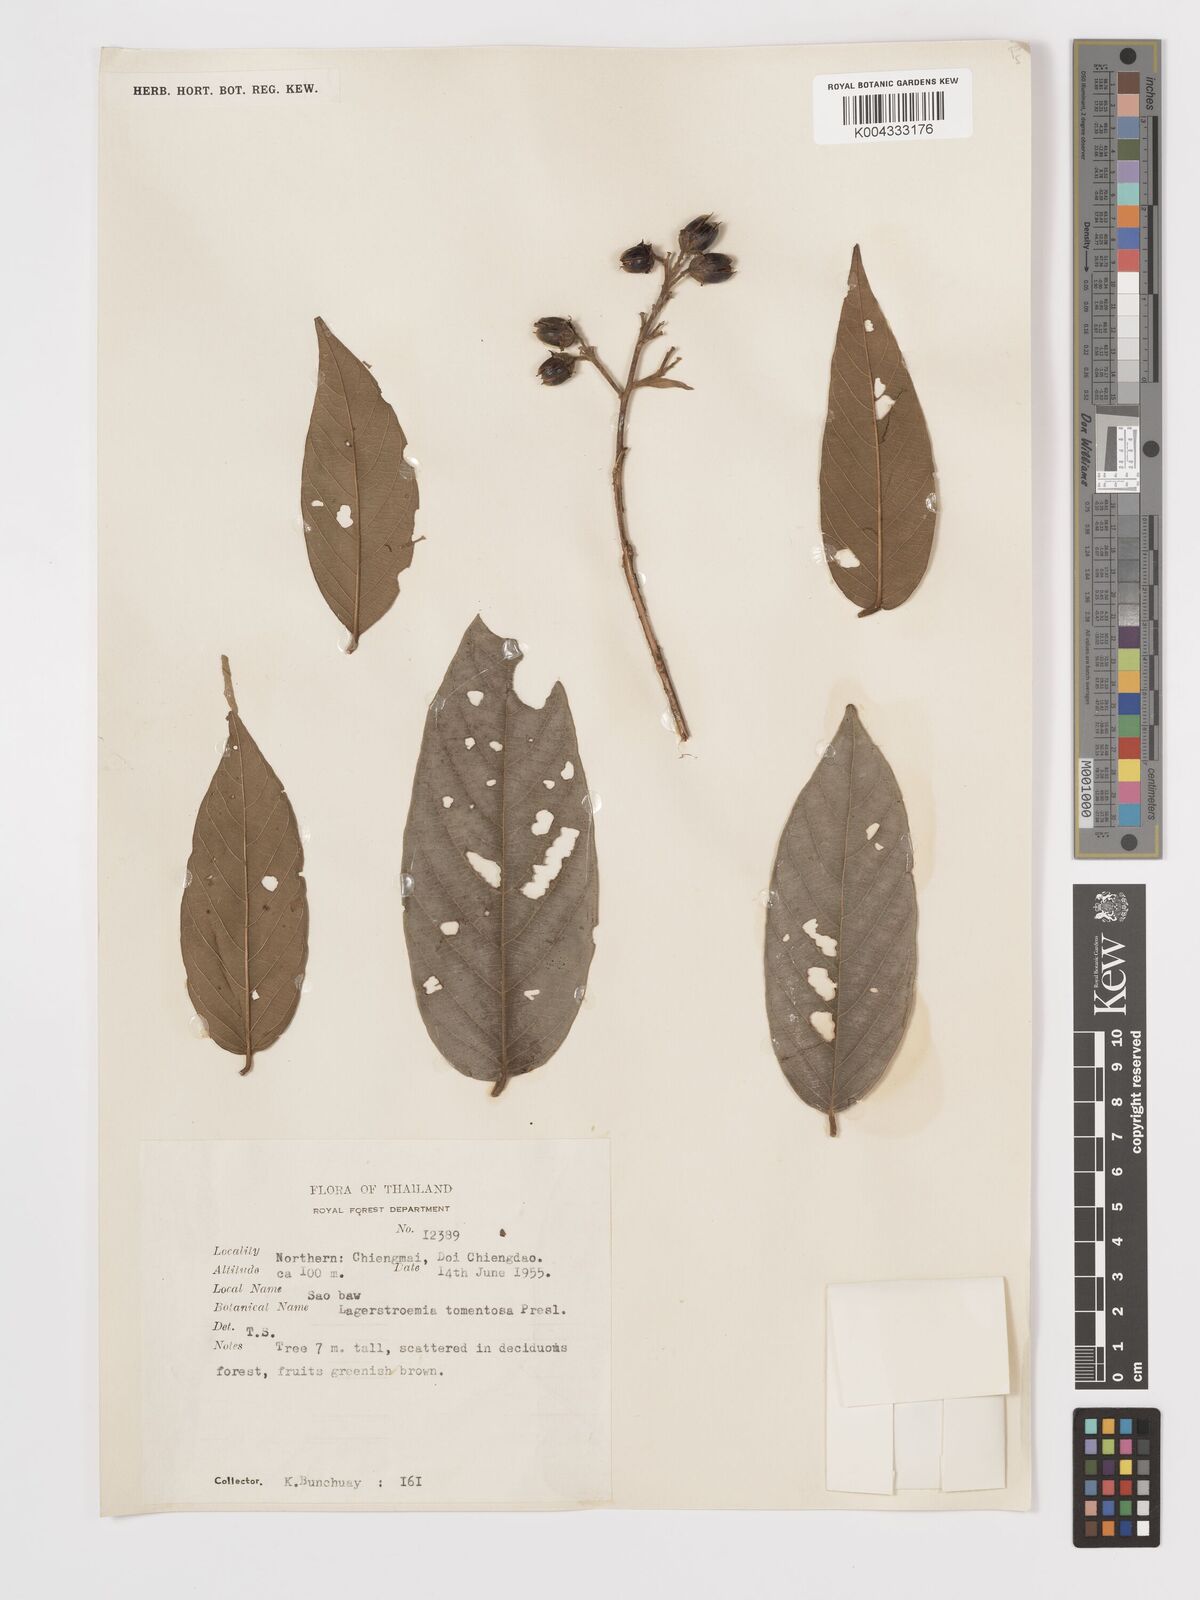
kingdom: Plantae
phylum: Tracheophyta
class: Magnoliopsida
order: Myrtales
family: Lythraceae
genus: Lagerstroemia
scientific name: Lagerstroemia tomentosa
